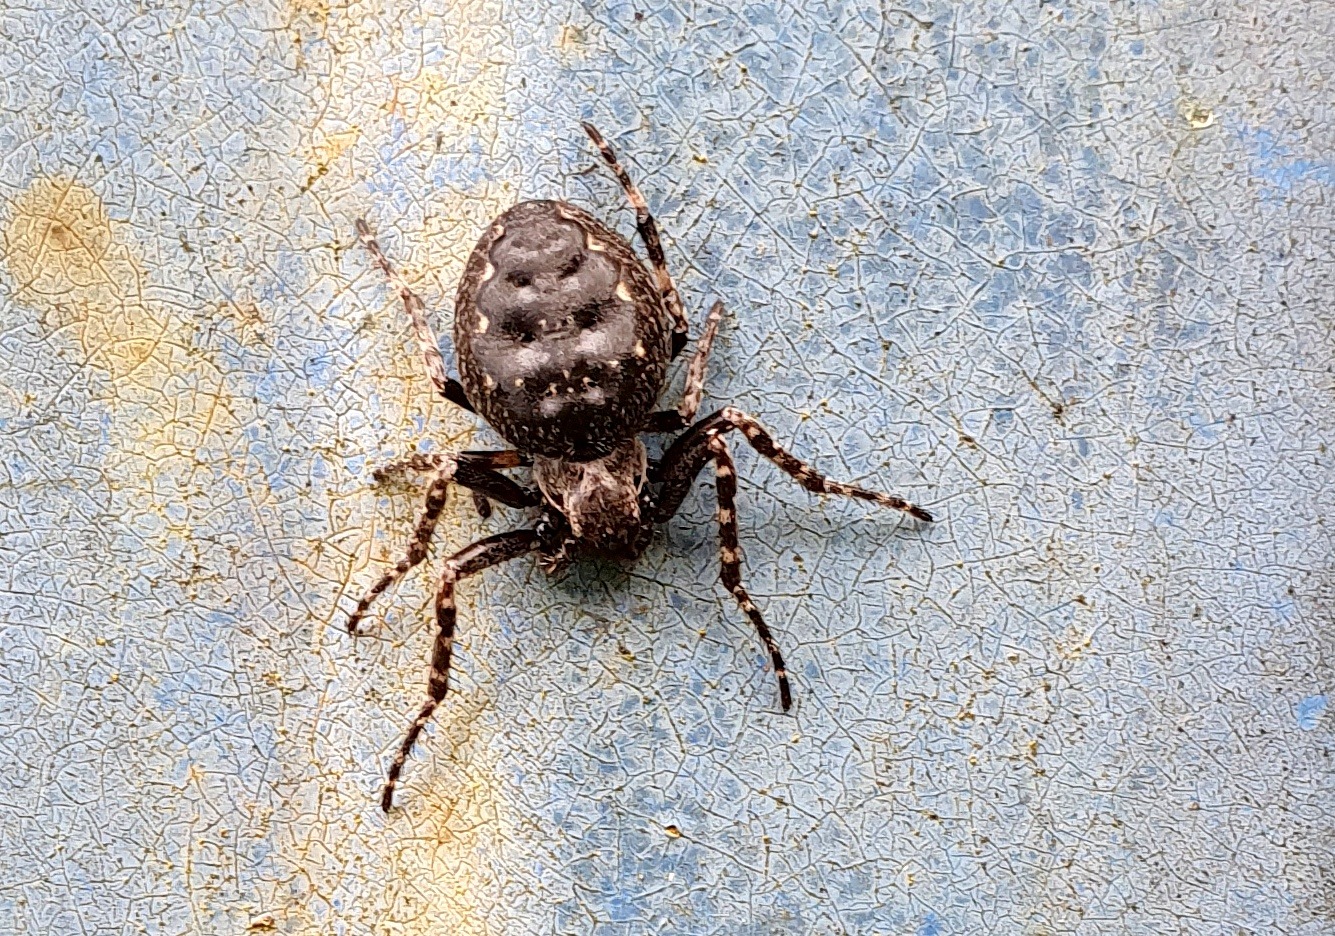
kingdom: Animalia
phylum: Arthropoda
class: Arachnida
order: Araneae
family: Araneidae
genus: Nuctenea
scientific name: Nuctenea umbratica
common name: Flad hjulspinder
